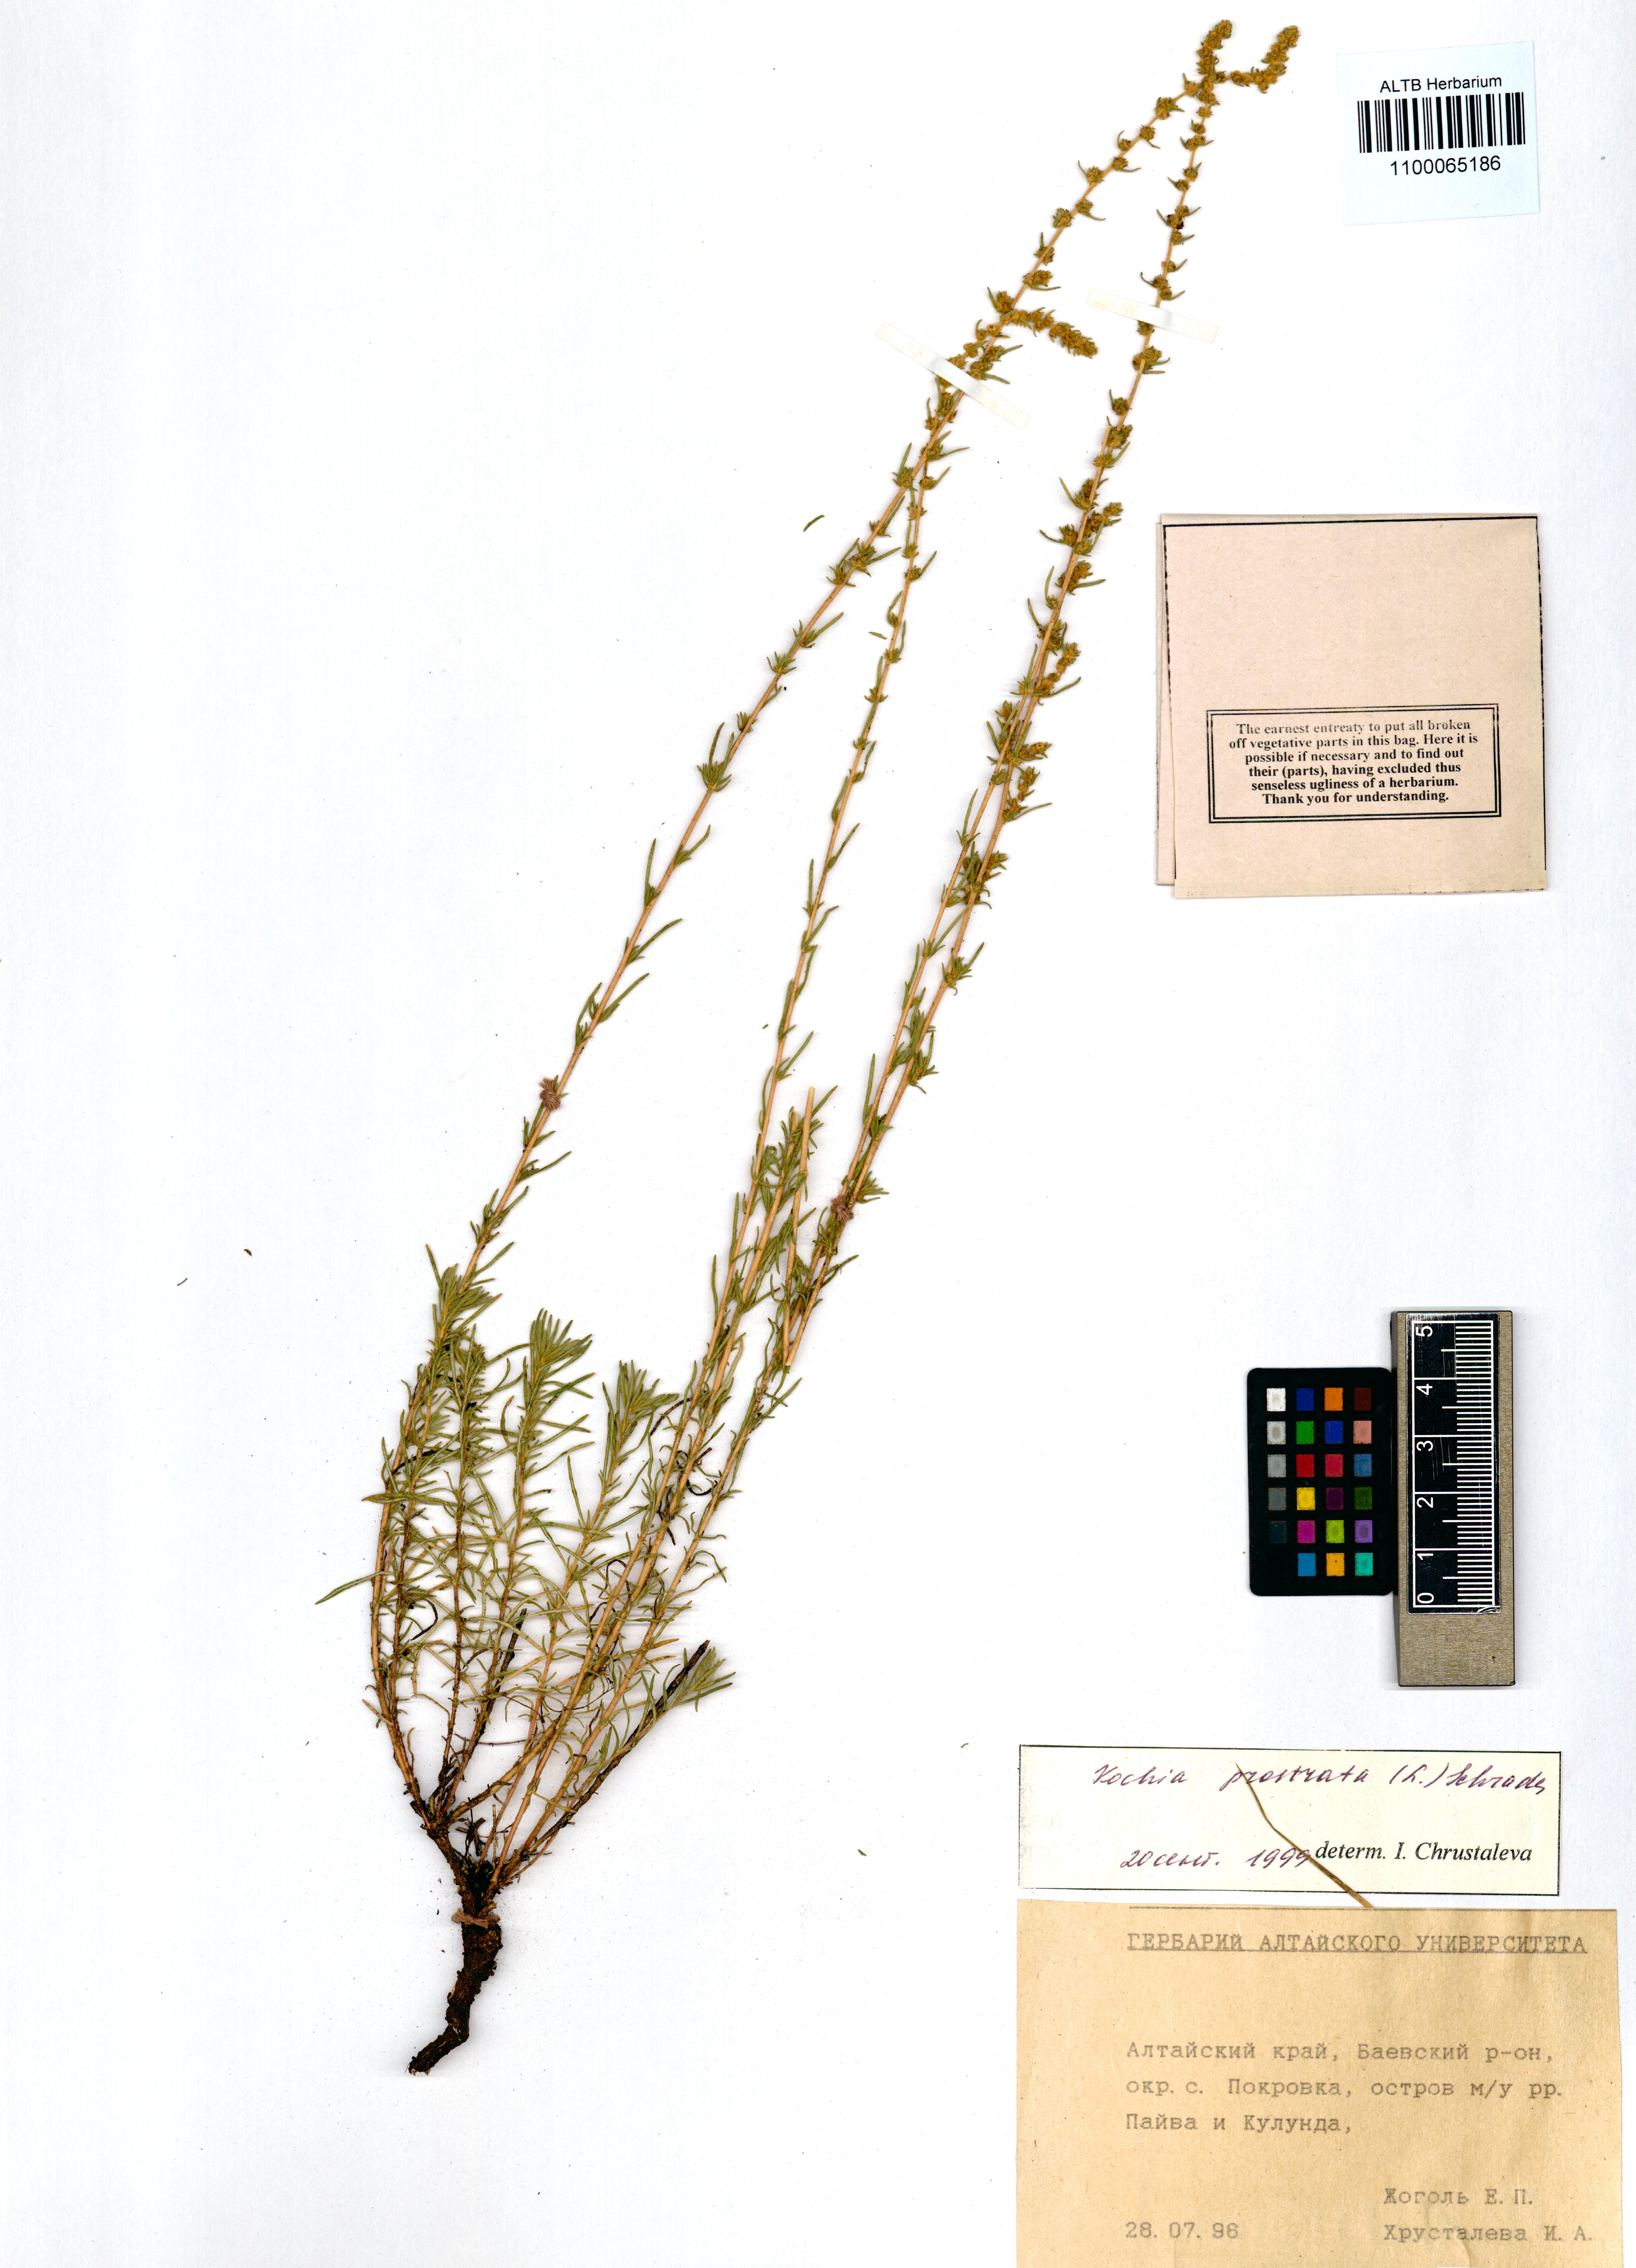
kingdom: Plantae
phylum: Tracheophyta
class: Magnoliopsida
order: Caryophyllales
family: Amaranthaceae
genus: Bassia
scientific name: Bassia prostrata
